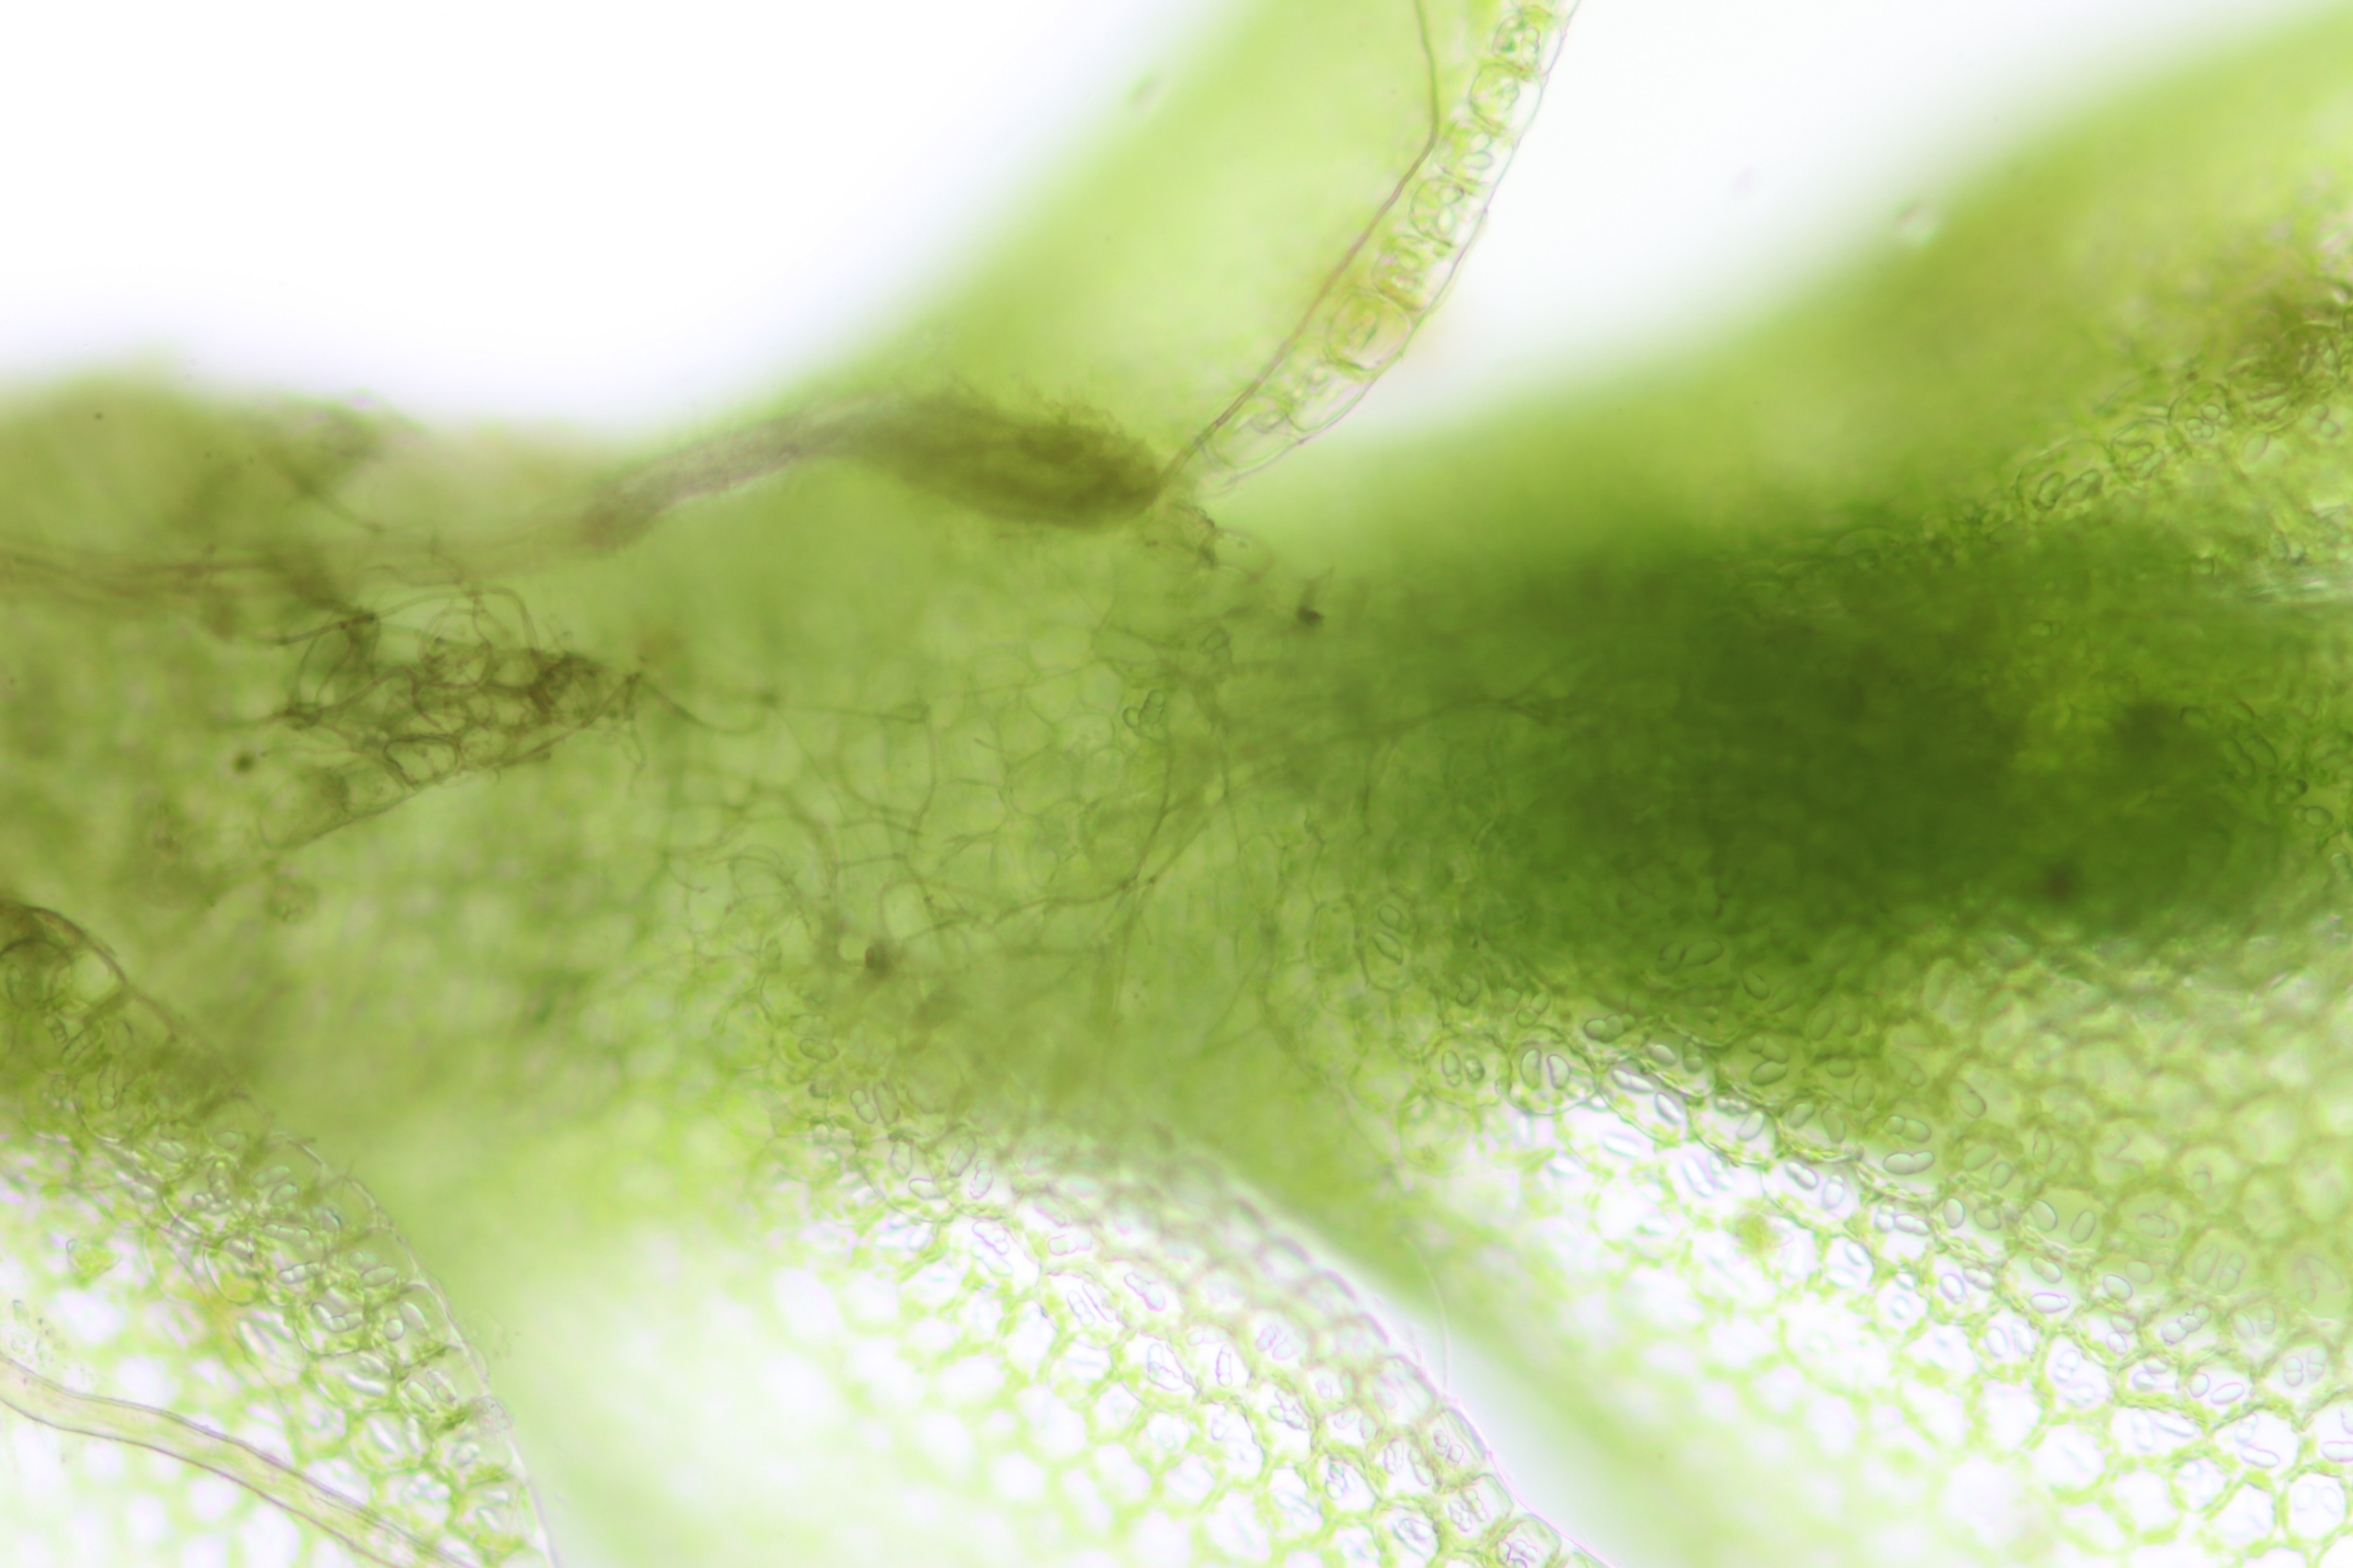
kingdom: Plantae
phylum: Marchantiophyta
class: Jungermanniopsida
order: Jungermanniales
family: Gymnomitriaceae
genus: Nardia
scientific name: Nardia scalaris
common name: Tæt kappesvøb
